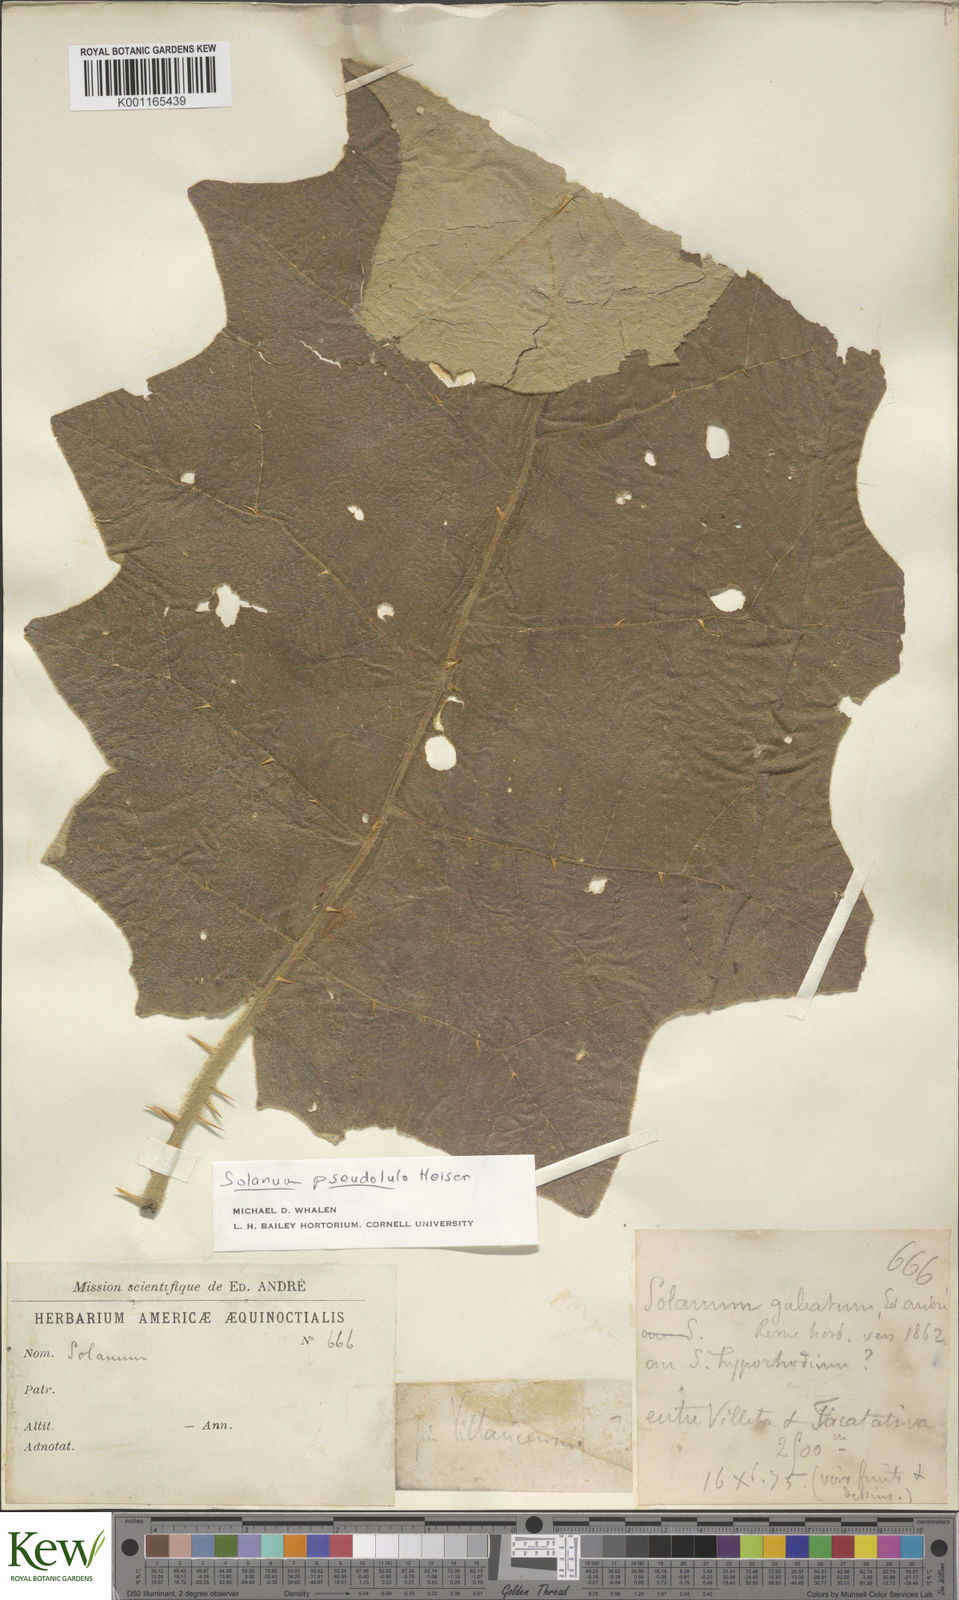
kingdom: Plantae
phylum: Tracheophyta
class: Magnoliopsida
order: Solanales
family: Solanaceae
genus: Solanum
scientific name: Solanum pseudolulo
